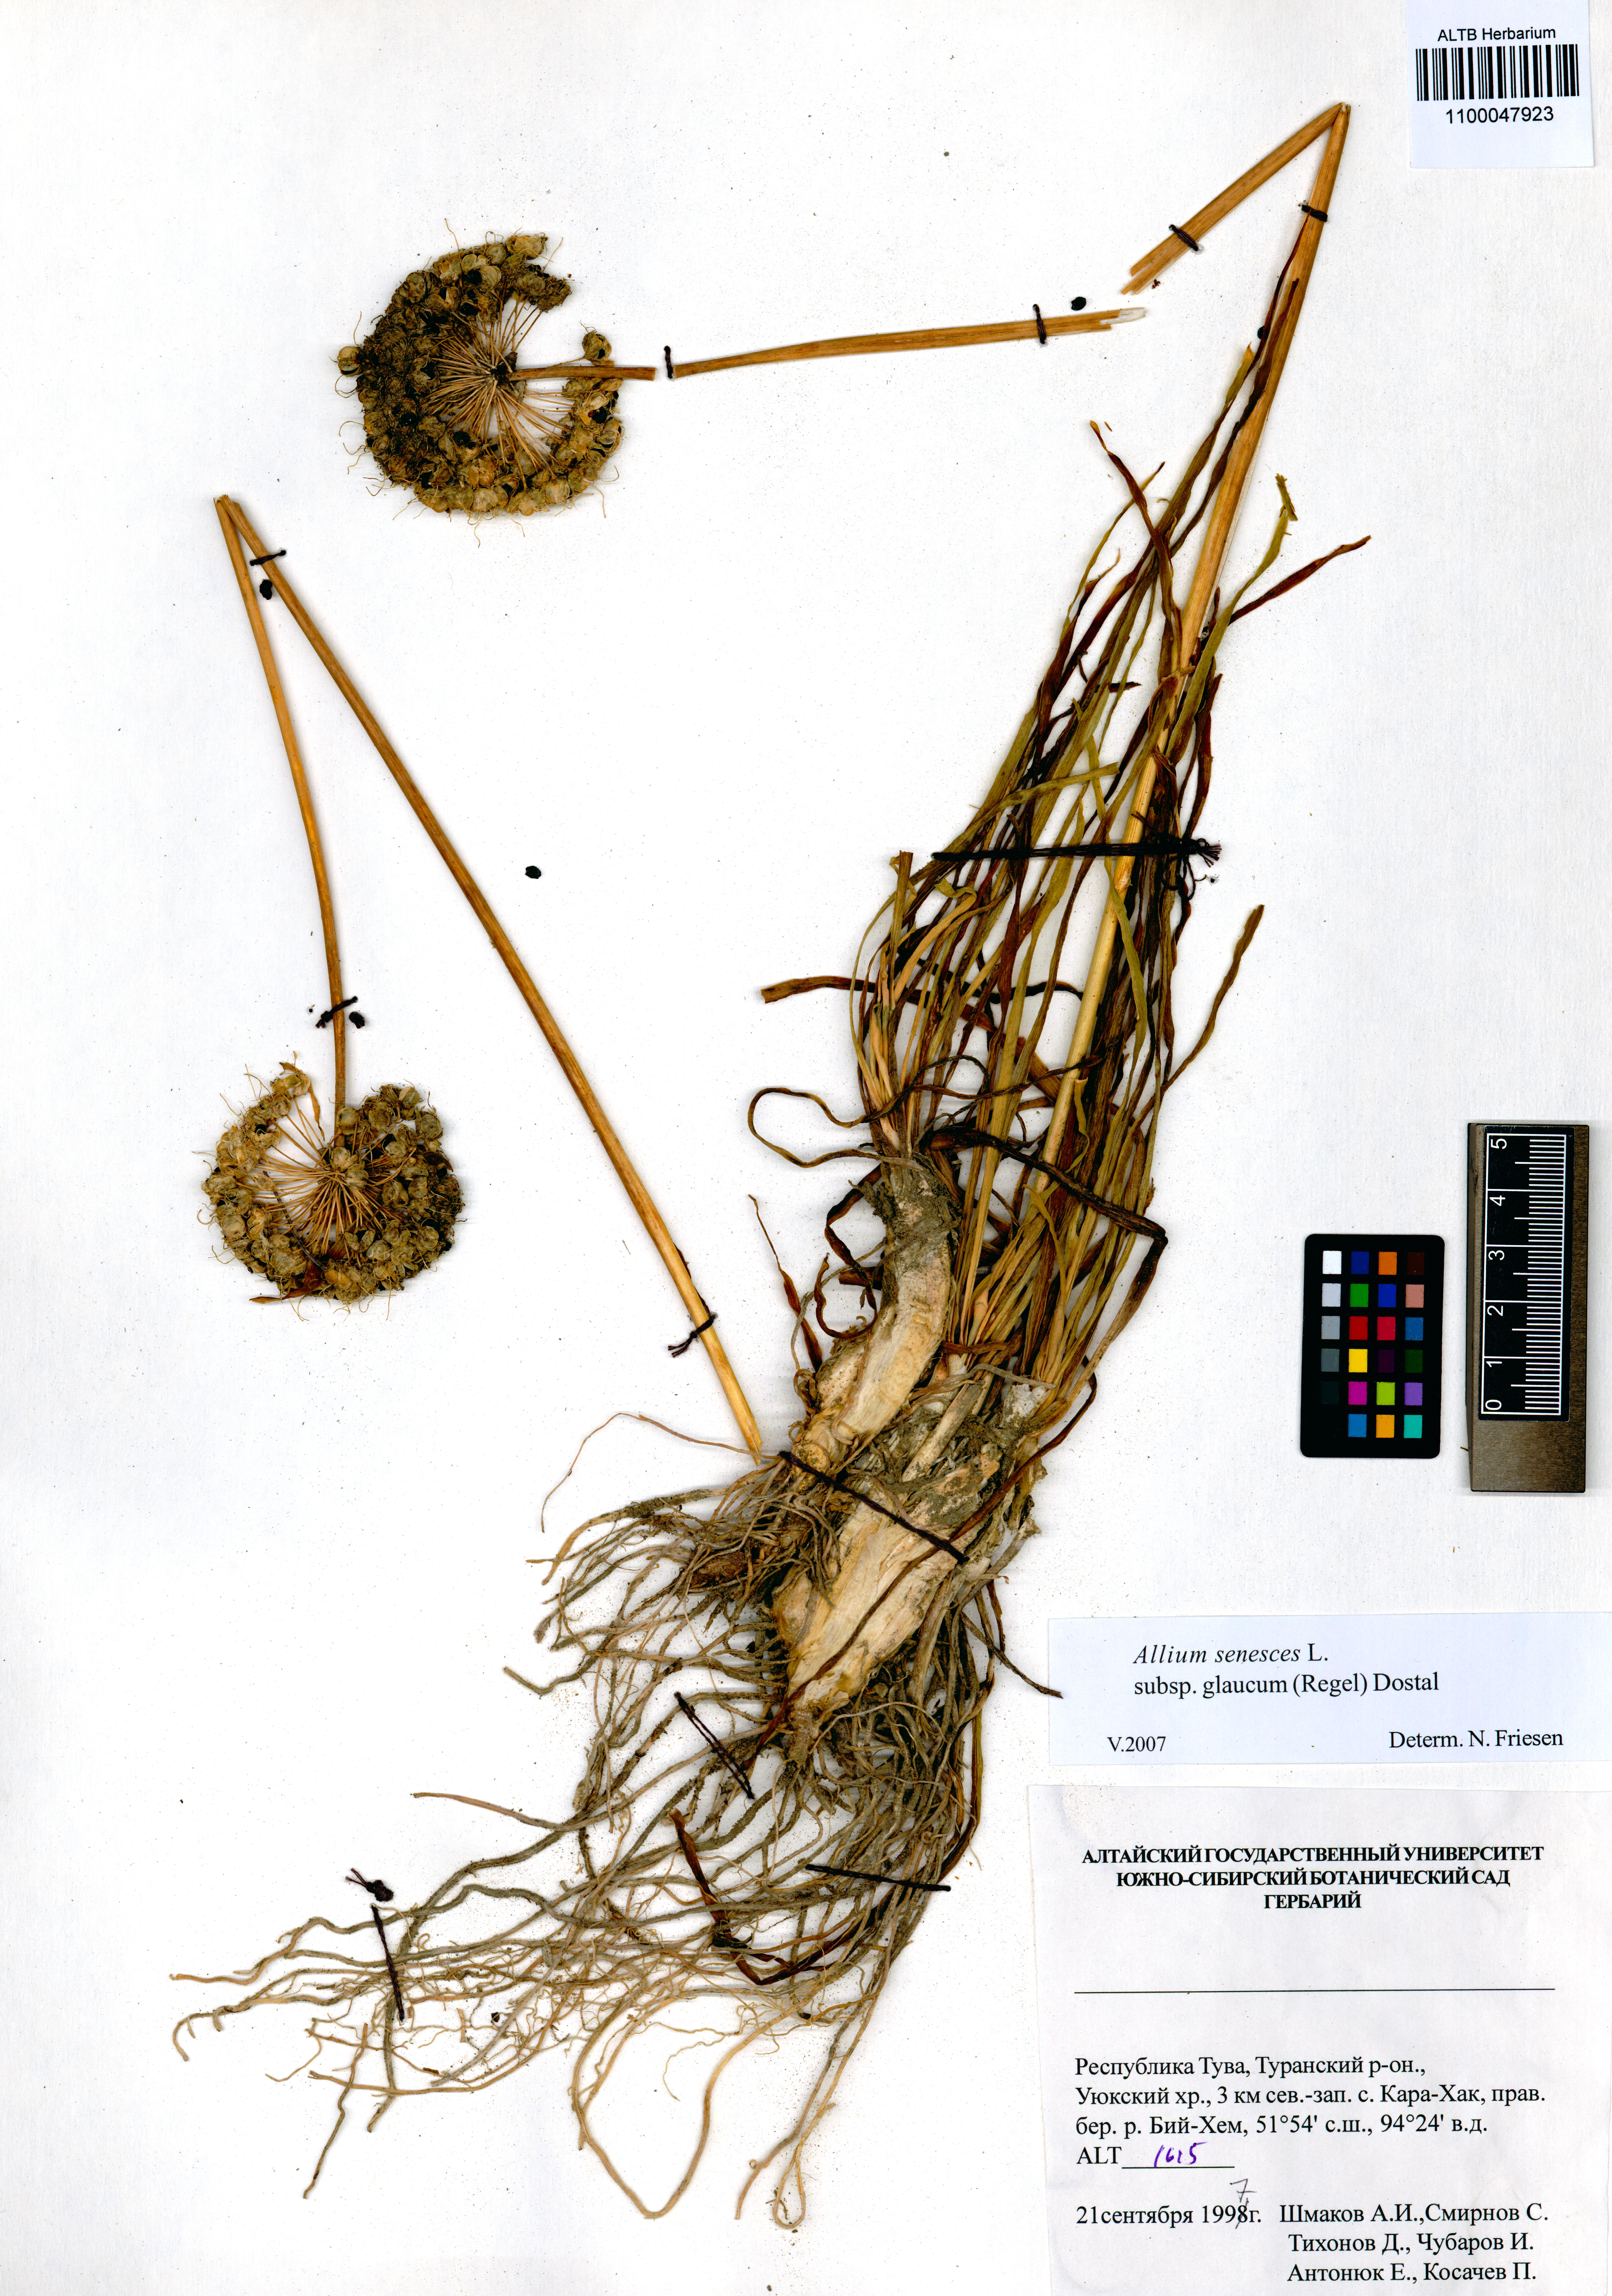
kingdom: Plantae
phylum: Tracheophyta
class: Liliopsida
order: Asparagales
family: Amaryllidaceae
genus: Allium
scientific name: Allium senescens
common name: German garlic
